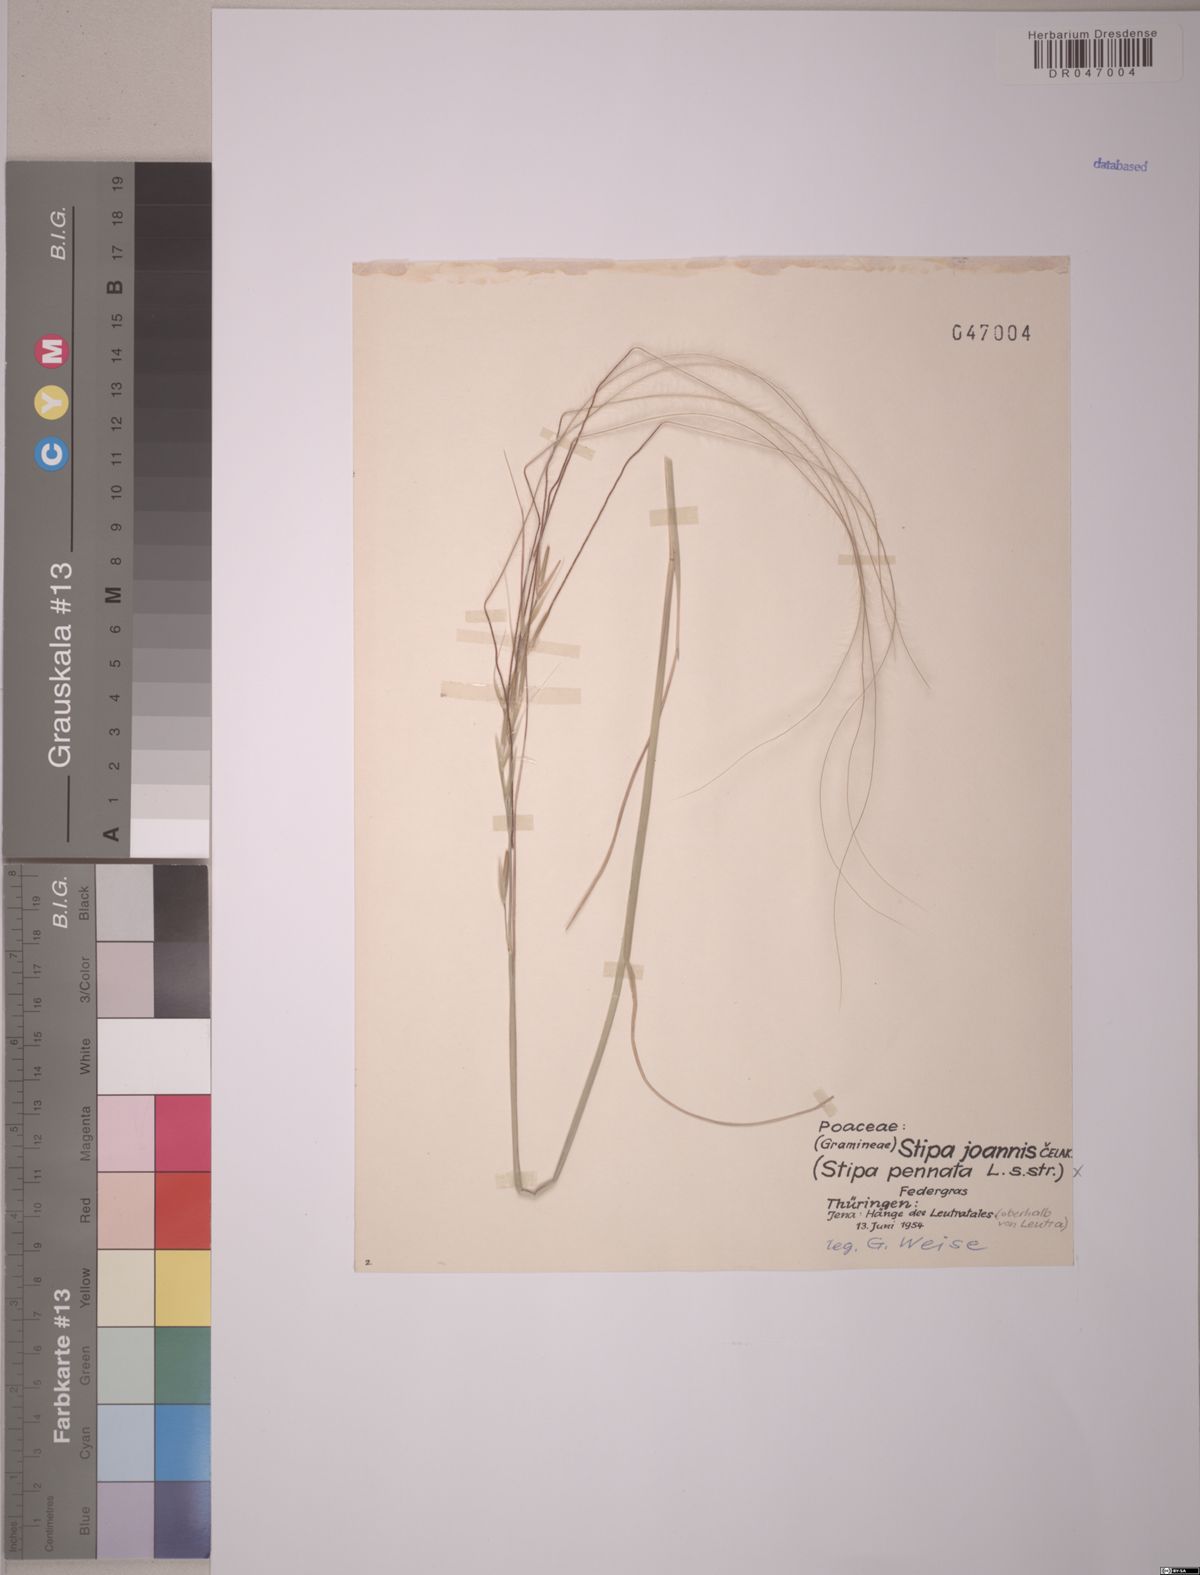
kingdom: Plantae
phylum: Tracheophyta
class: Liliopsida
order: Poales
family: Poaceae
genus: Stipa
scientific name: Stipa pennata
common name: European feather grass
